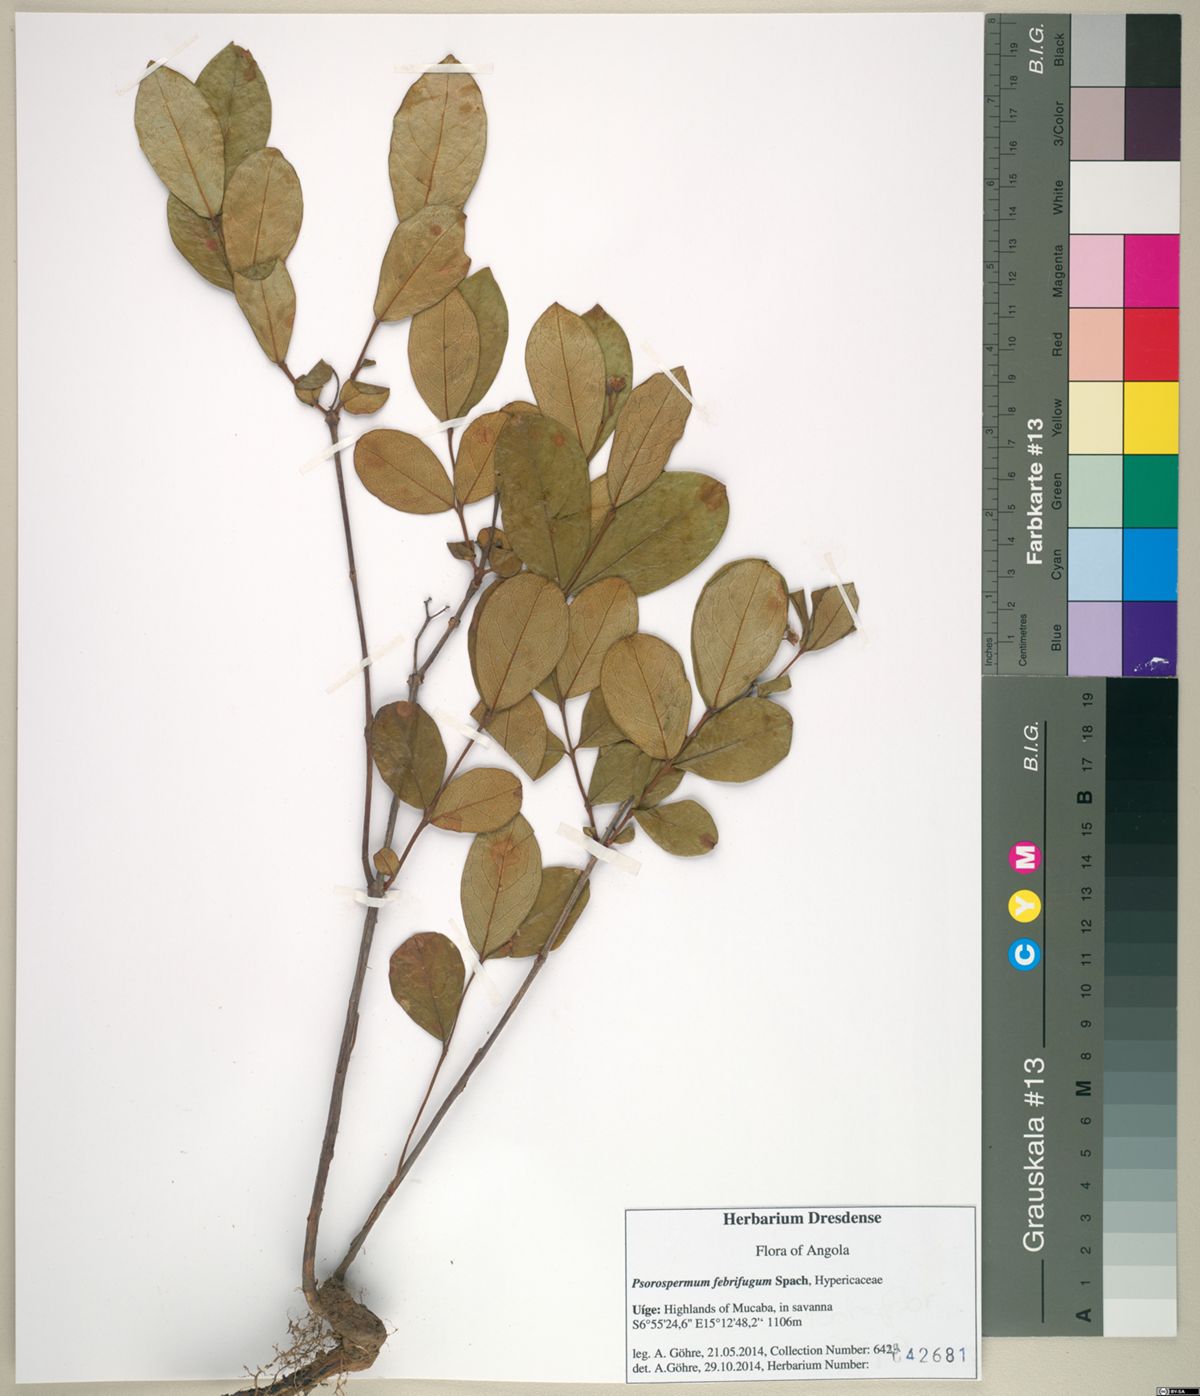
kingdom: Plantae
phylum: Tracheophyta
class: Magnoliopsida
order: Malpighiales
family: Hypericaceae
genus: Psorospermum
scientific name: Psorospermum febrifugum
